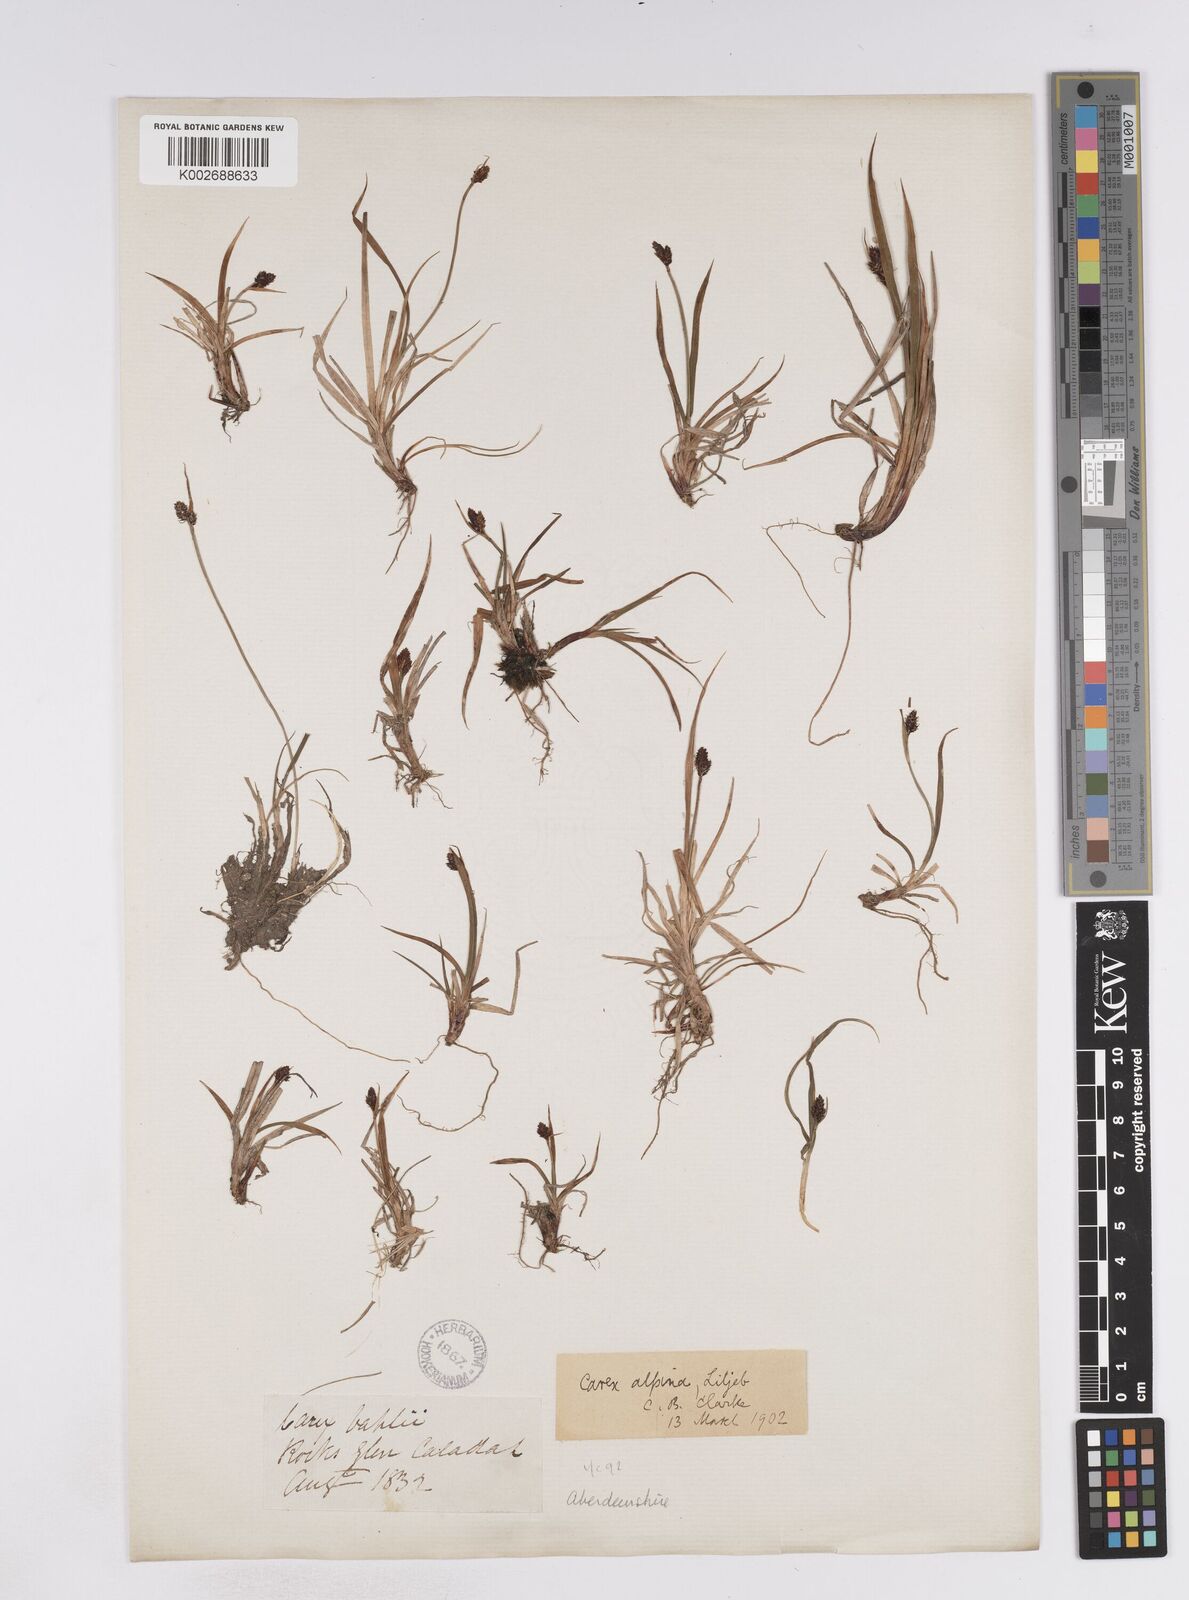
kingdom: Plantae
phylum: Tracheophyta
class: Liliopsida
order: Poales
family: Cyperaceae
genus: Carex
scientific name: Carex norvegica
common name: Close-headed alpine-sedge
